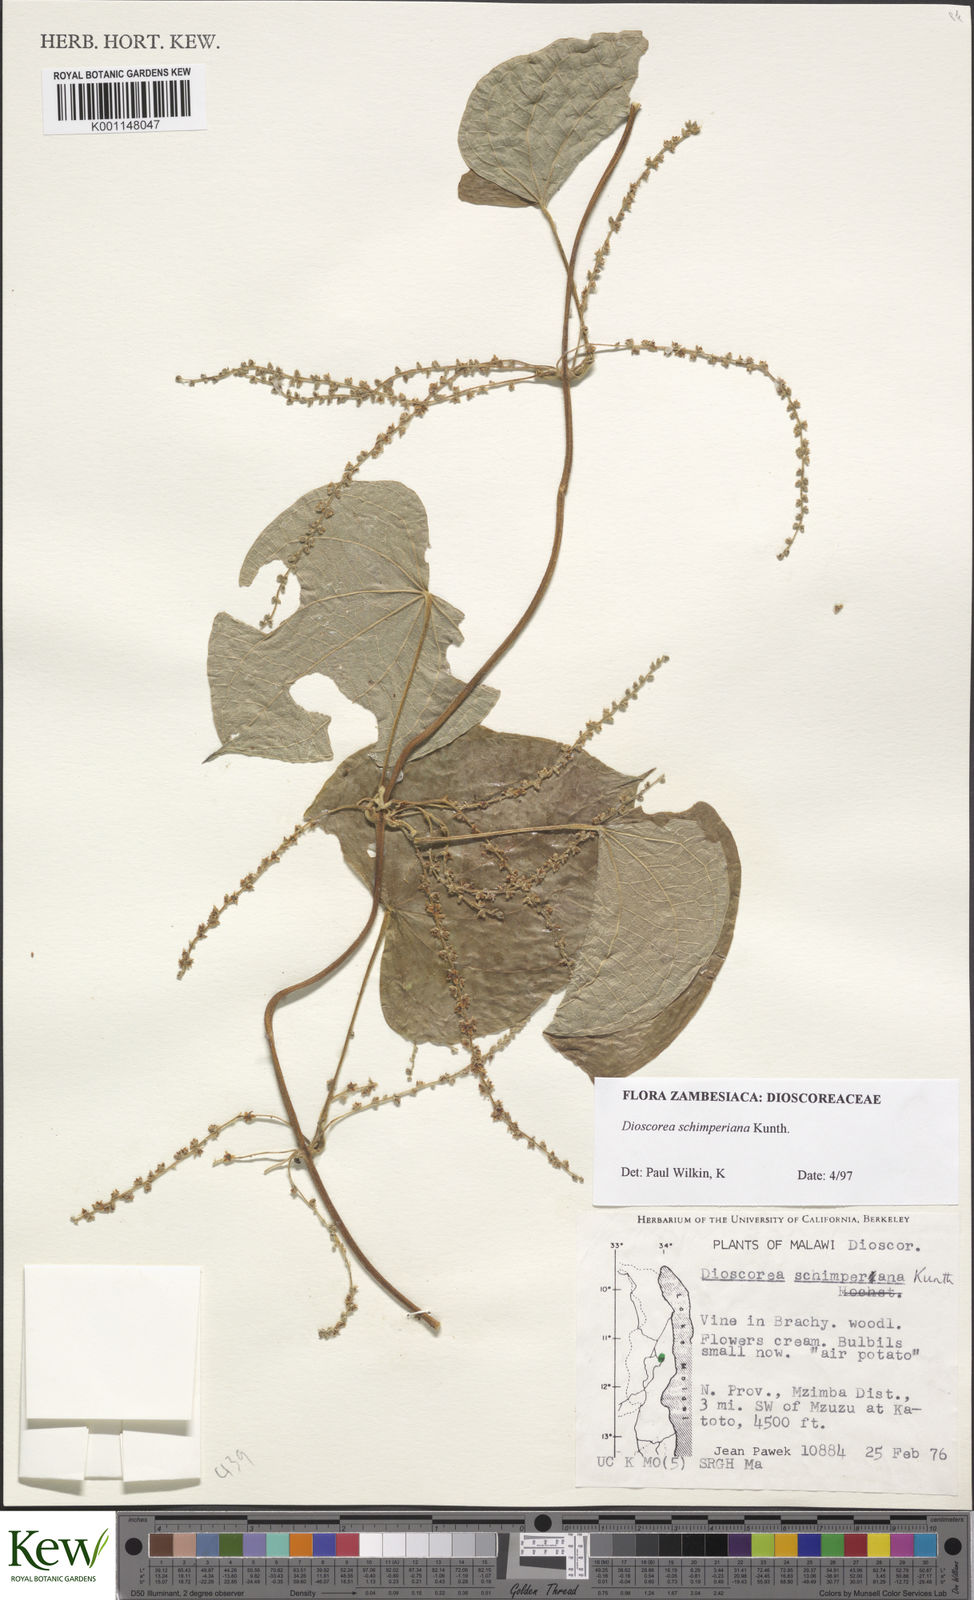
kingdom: Plantae
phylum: Tracheophyta
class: Liliopsida
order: Dioscoreales
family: Dioscoreaceae
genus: Dioscorea
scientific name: Dioscorea schimperiana
